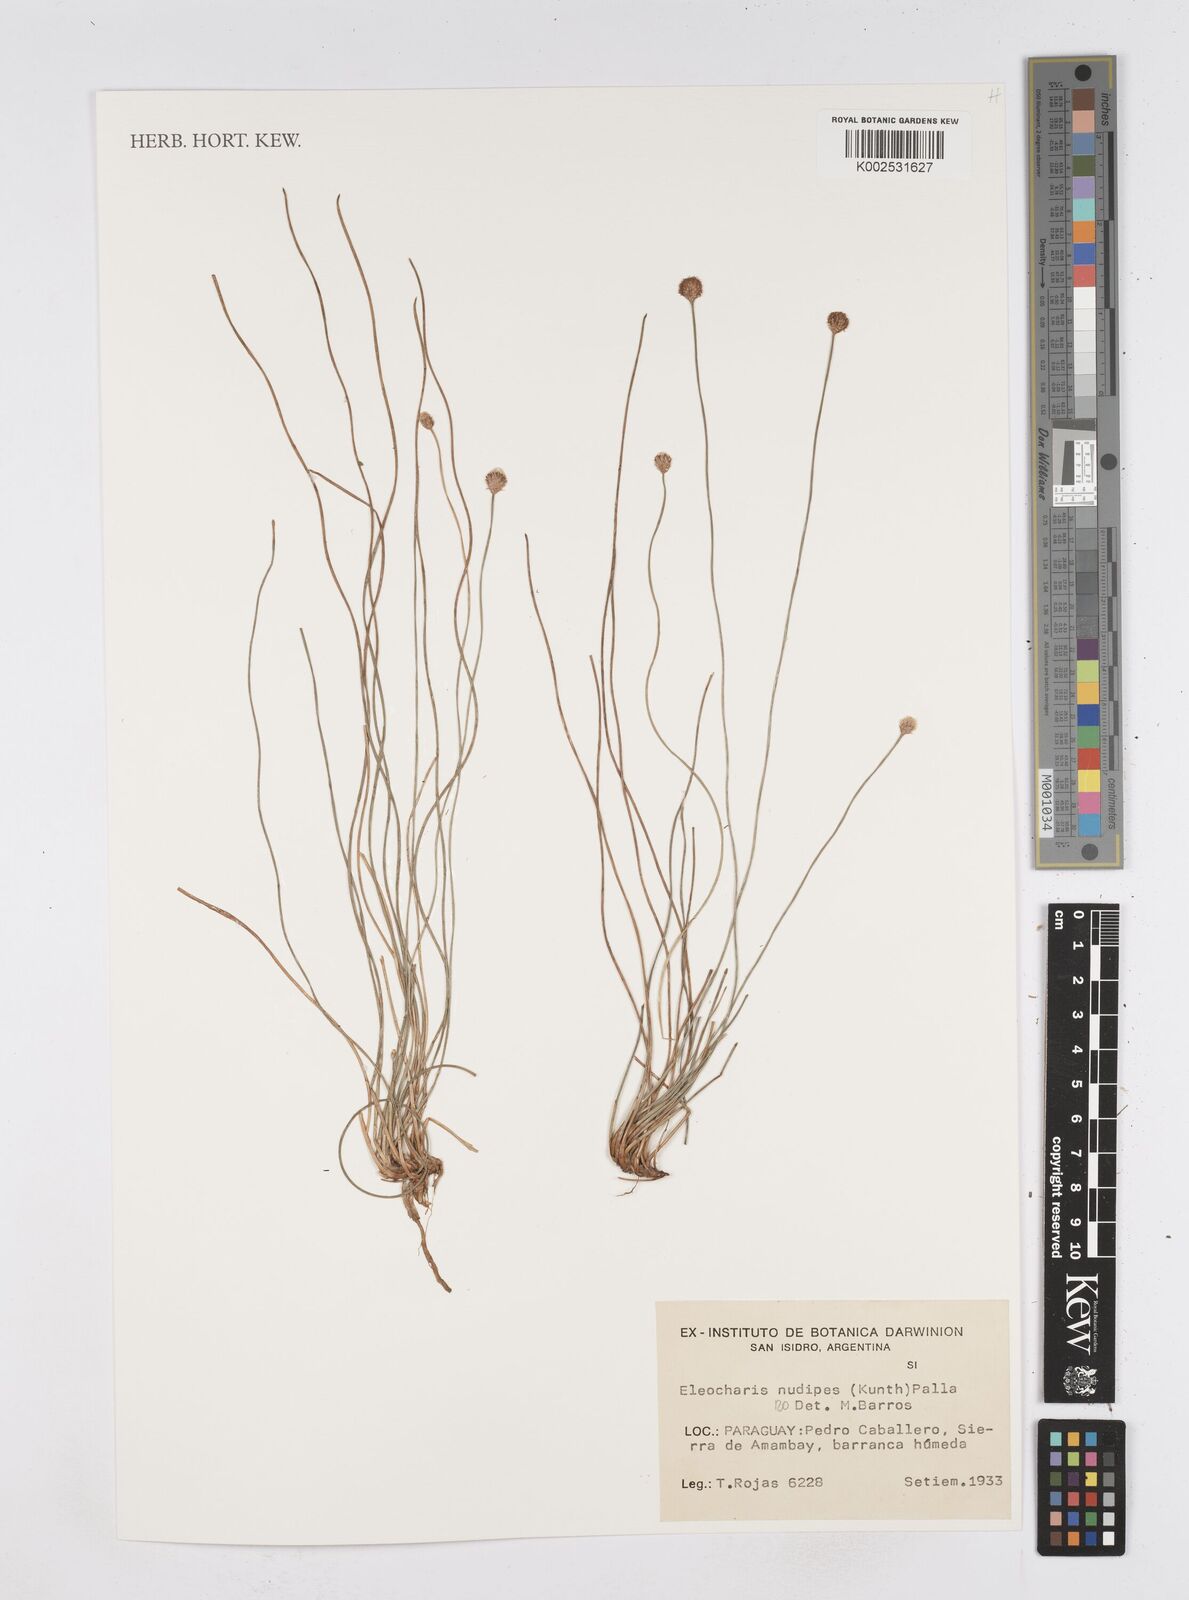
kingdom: Plantae
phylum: Tracheophyta
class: Liliopsida
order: Poales
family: Cyperaceae
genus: Eleocharis
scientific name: Eleocharis nudipes
